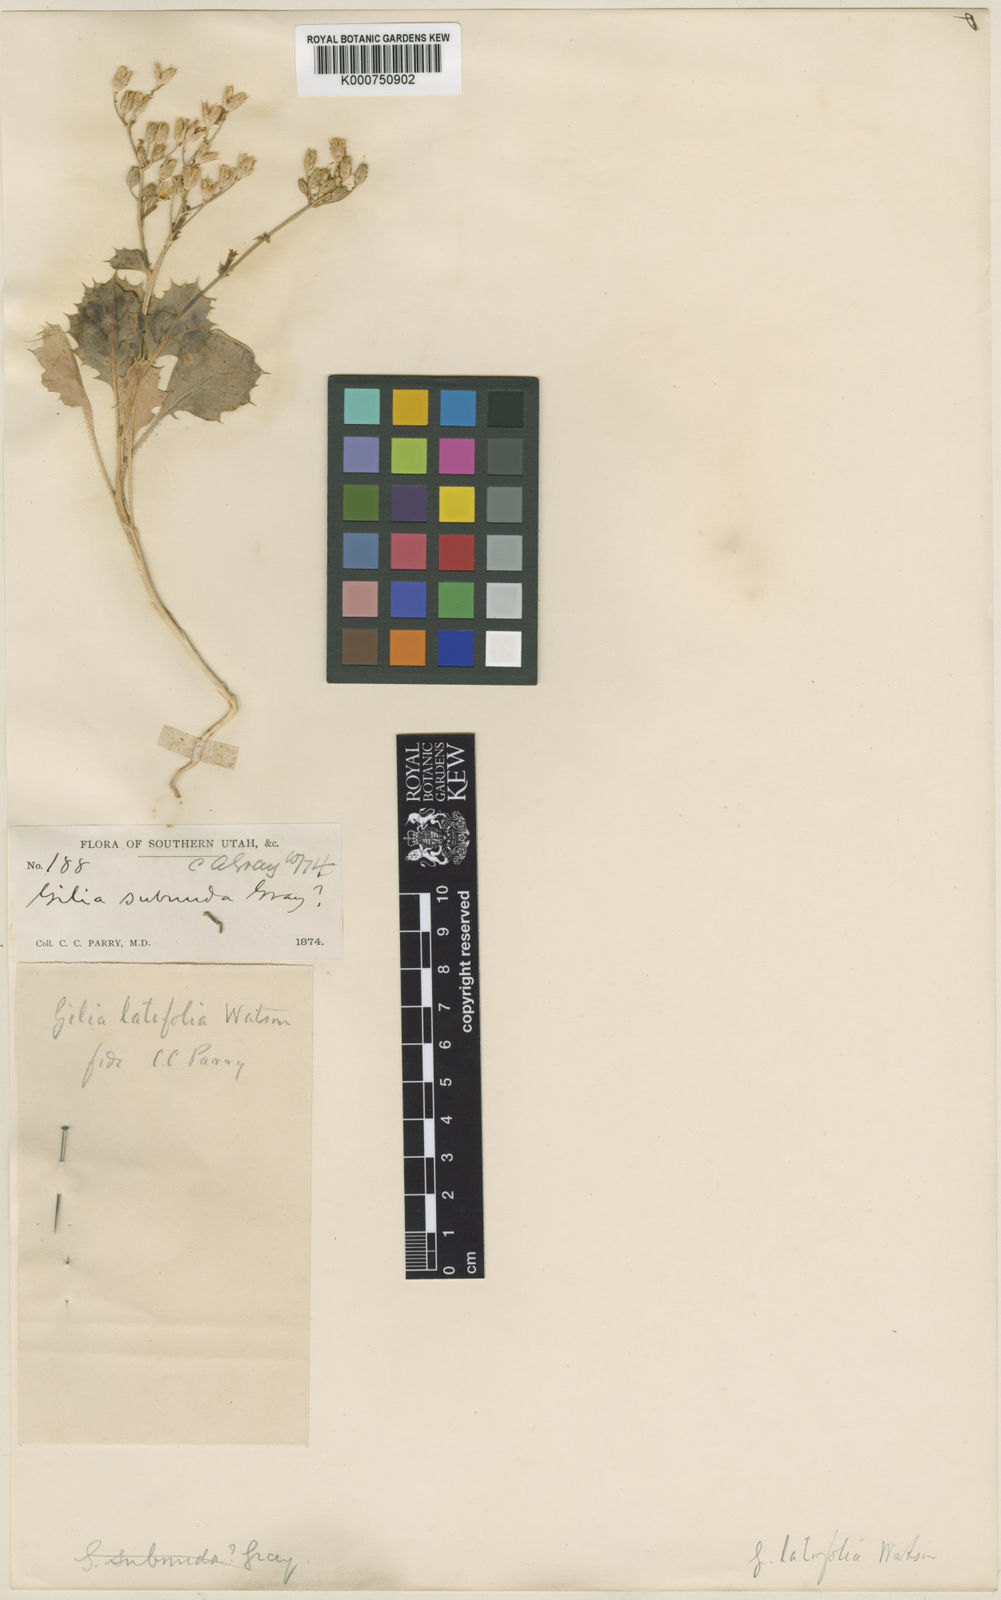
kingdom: Plantae
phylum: Tracheophyta
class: Magnoliopsida
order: Ericales
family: Polemoniaceae
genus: Aliciella
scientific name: Aliciella latifolia
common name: Broad-leaf gilia
